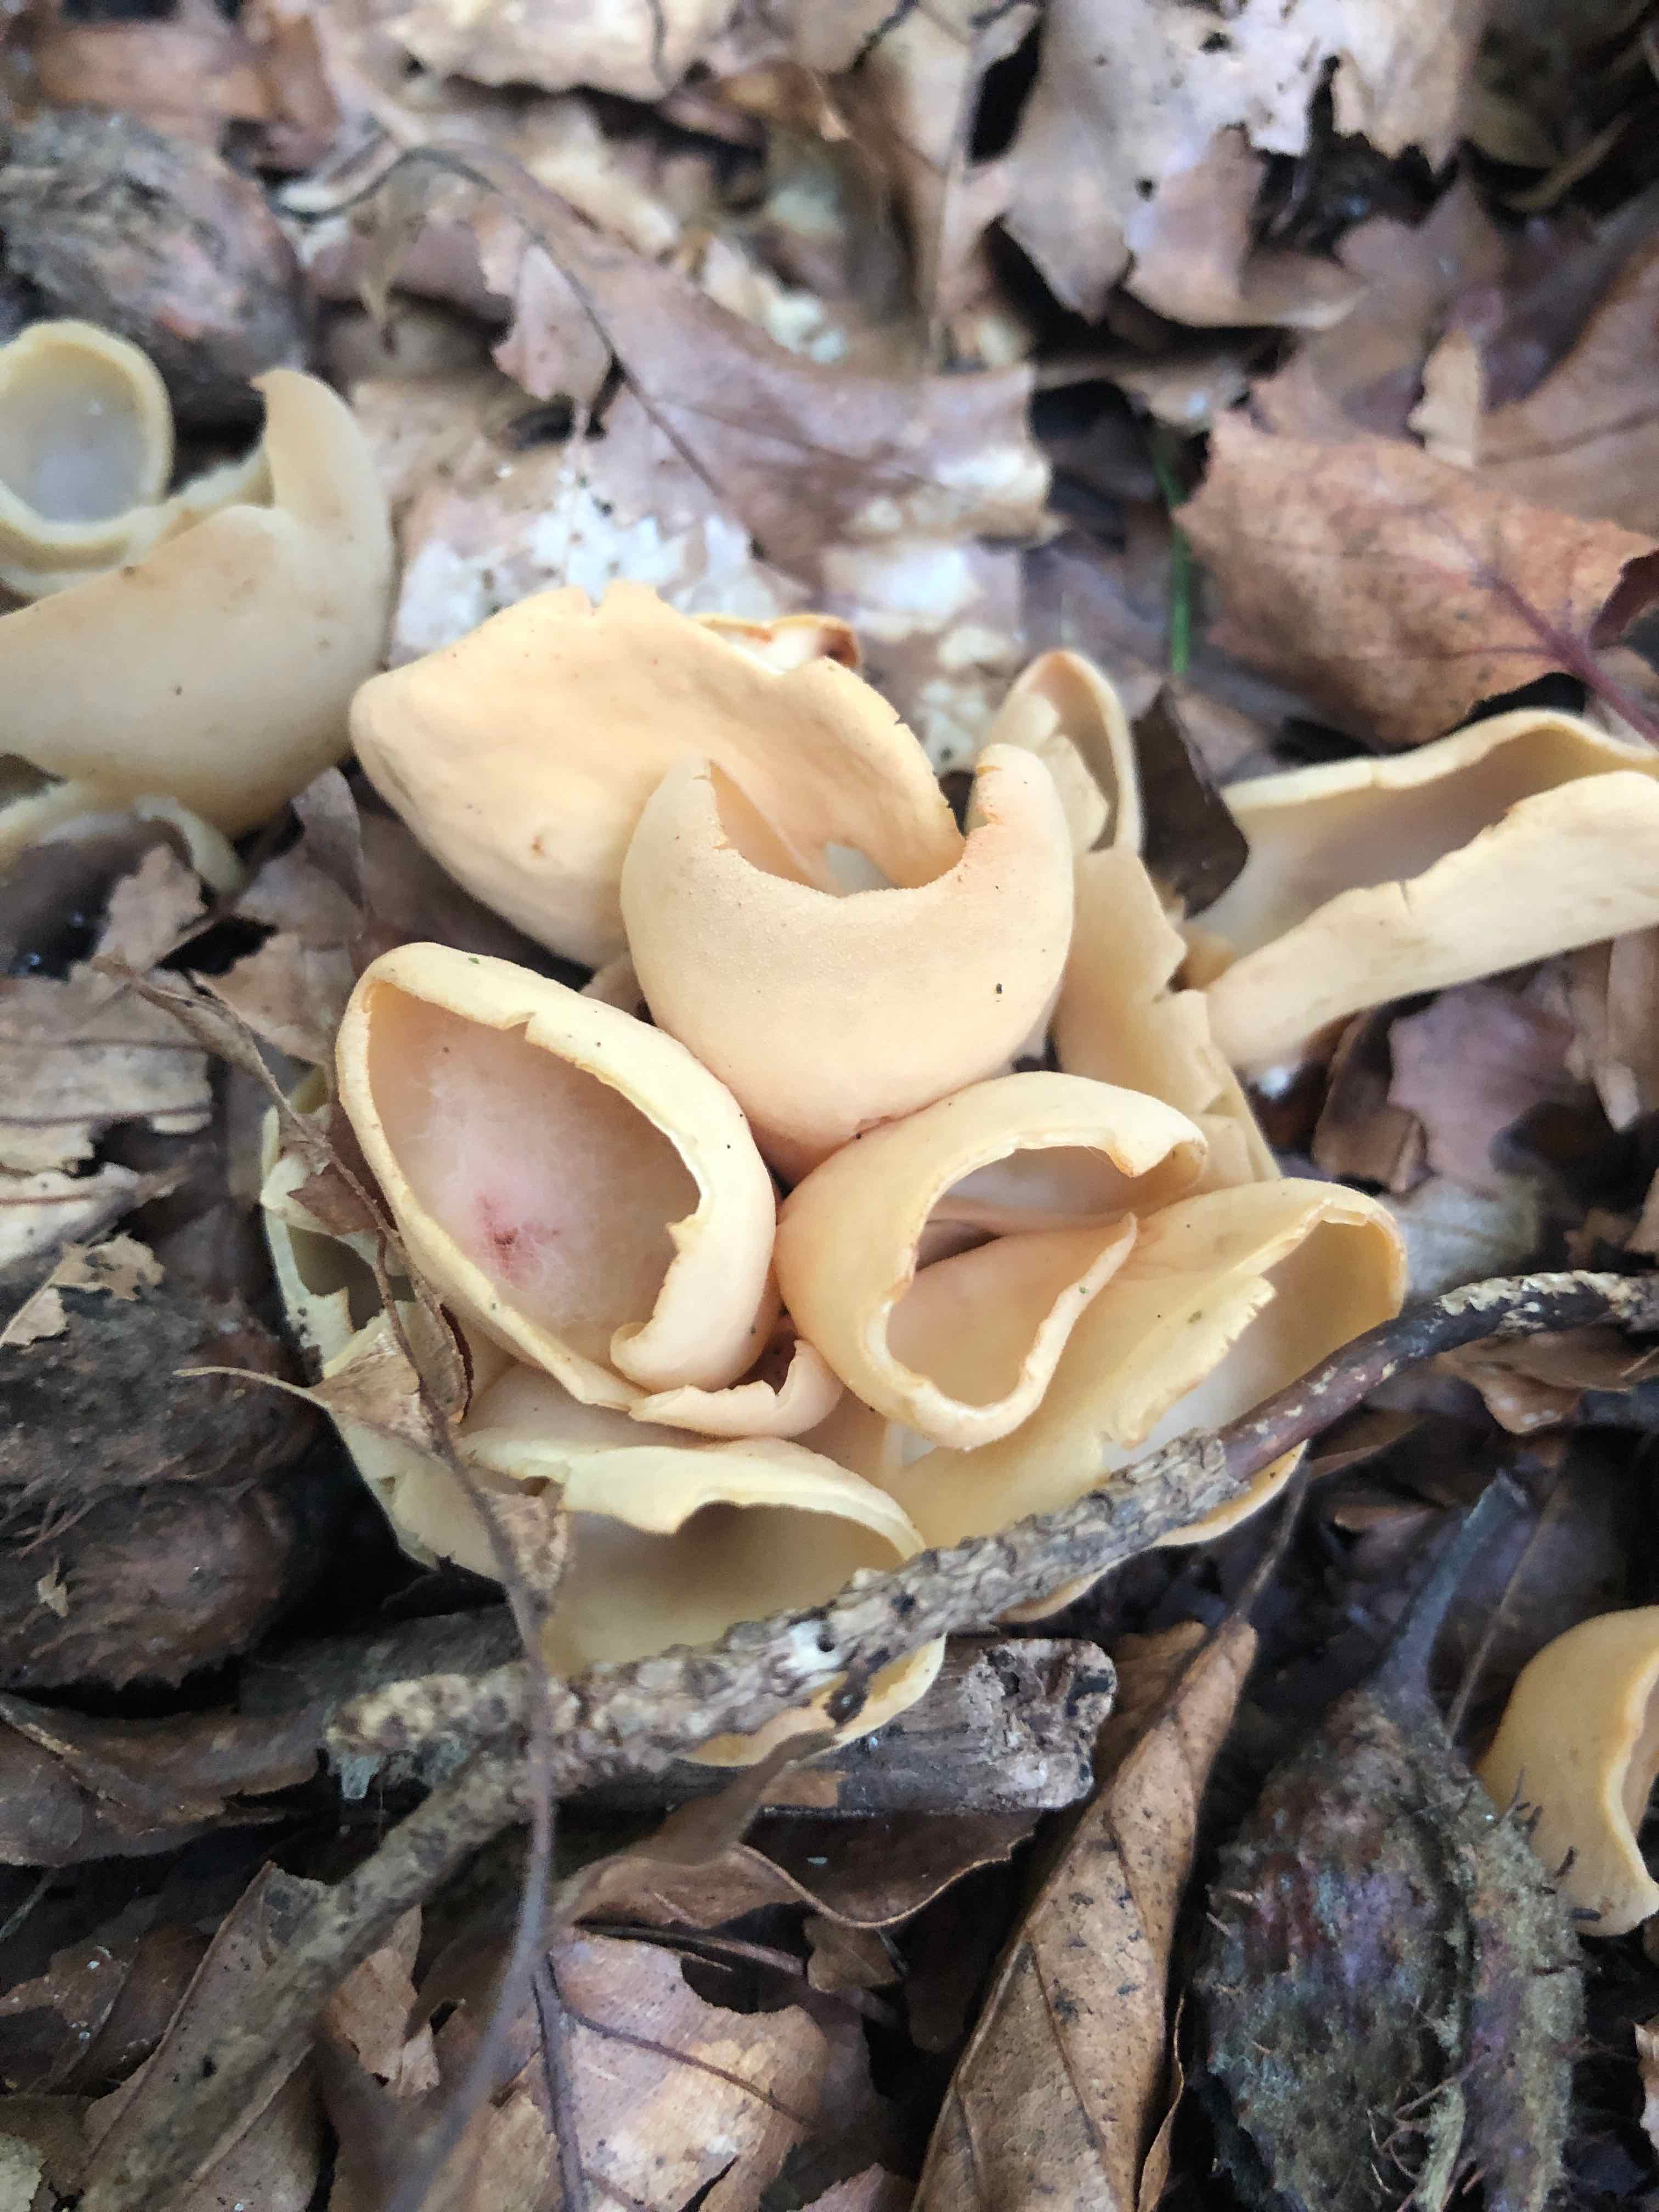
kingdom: Fungi
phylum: Ascomycota
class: Pezizomycetes
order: Pezizales
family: Otideaceae
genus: Otidea
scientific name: Otidea onotica
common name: æsel-ørebæger
